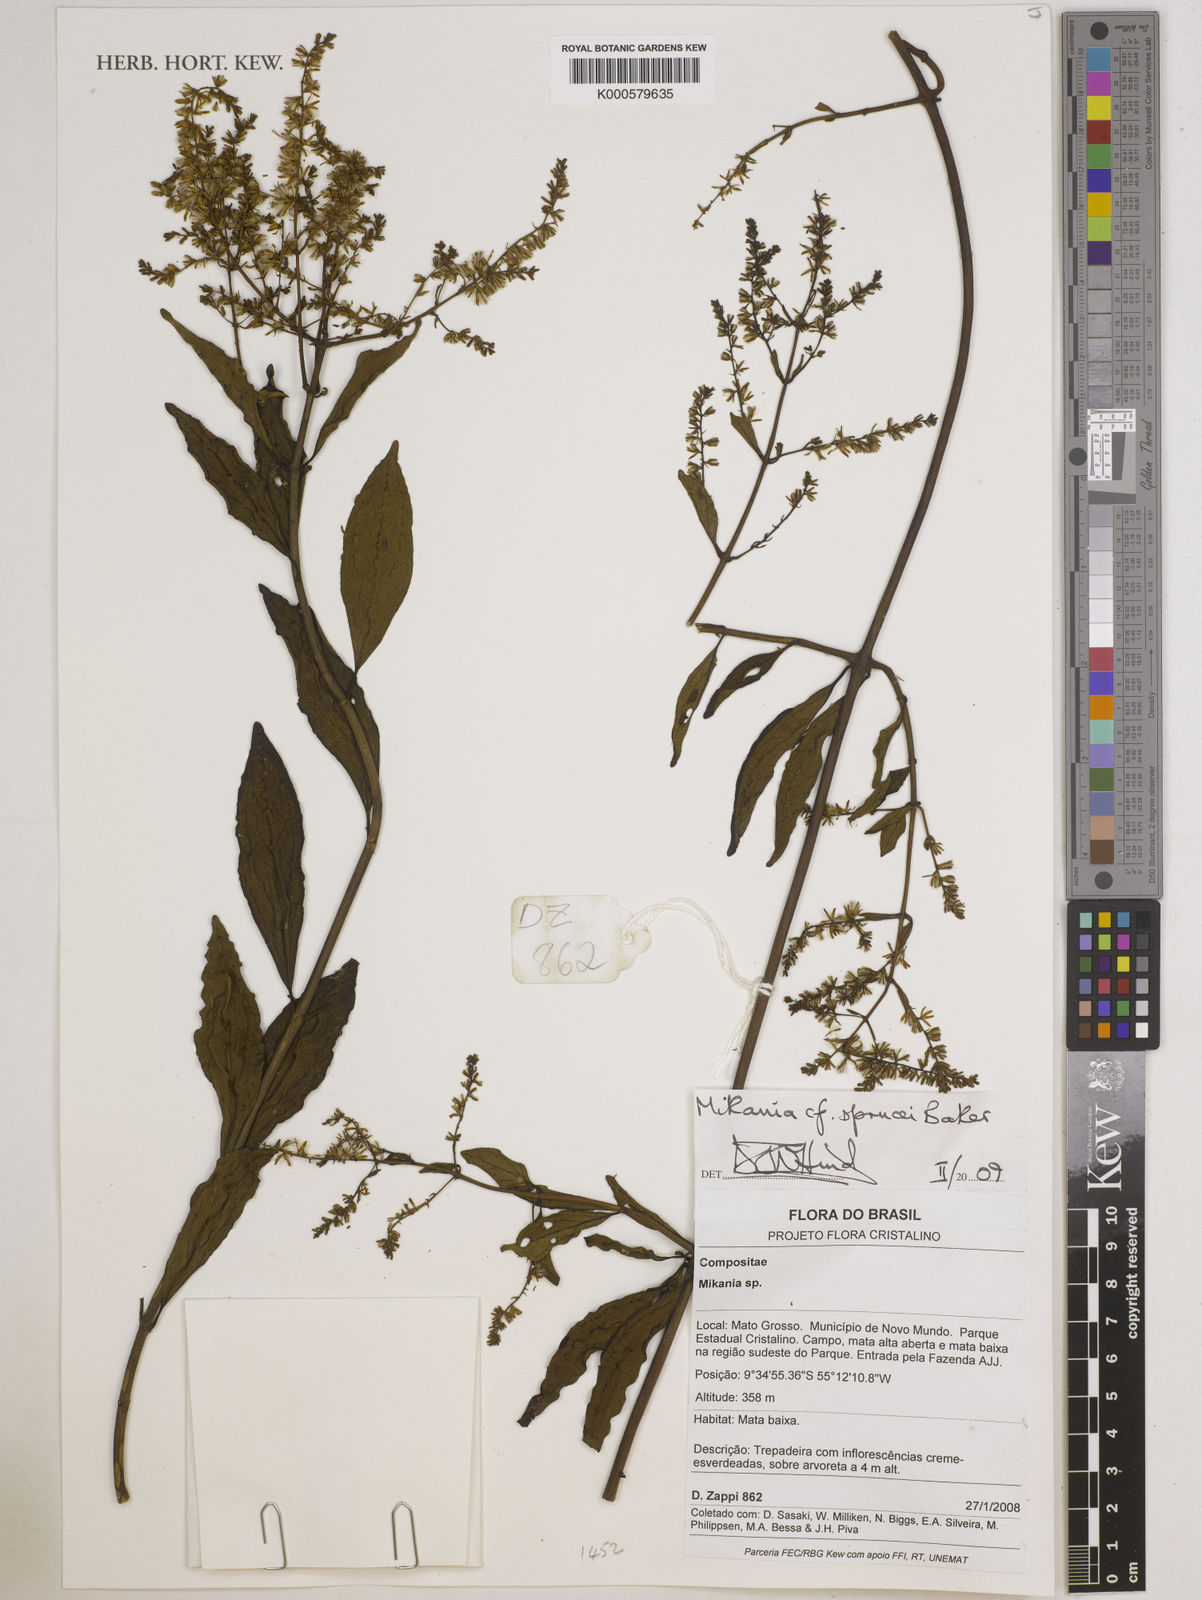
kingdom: Plantae
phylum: Tracheophyta
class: Magnoliopsida
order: Asterales
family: Asteraceae
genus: Mikania
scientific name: Mikania sprucei
